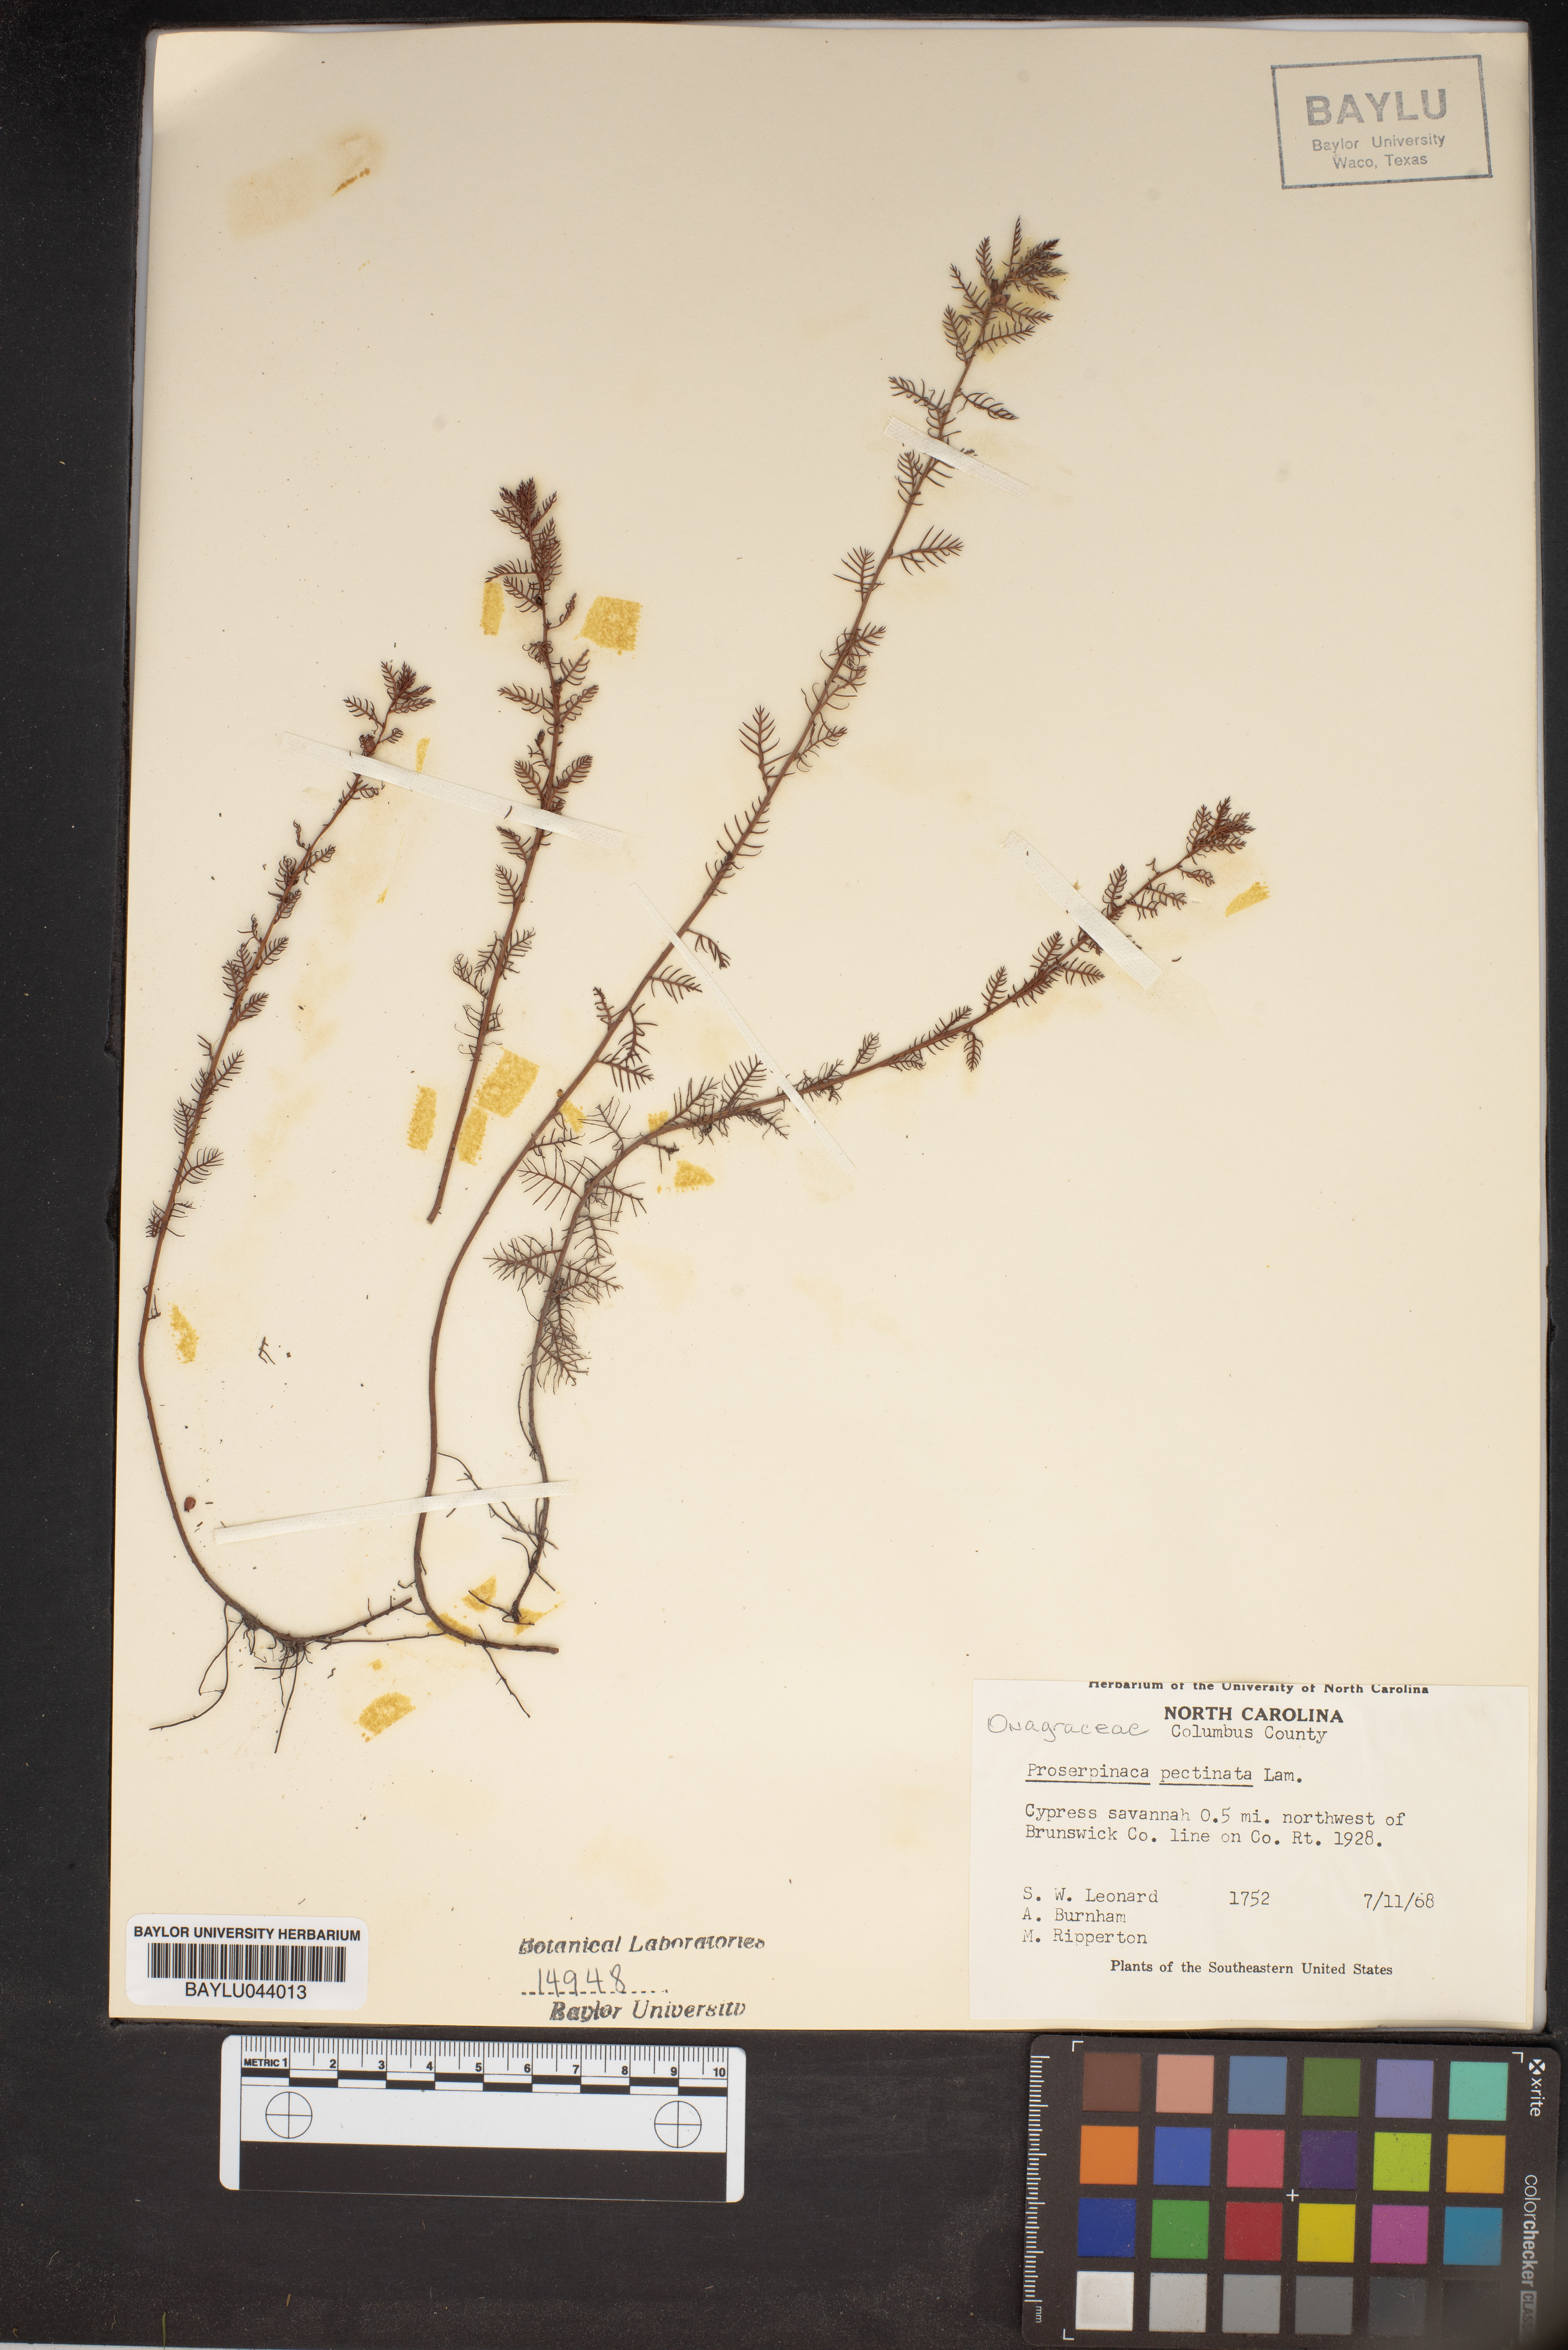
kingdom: Plantae
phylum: Tracheophyta
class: Magnoliopsida
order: Saxifragales
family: Haloragaceae
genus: Proserpinaca
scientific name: Proserpinaca pectinata
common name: Comb-leaved mermaidweed
